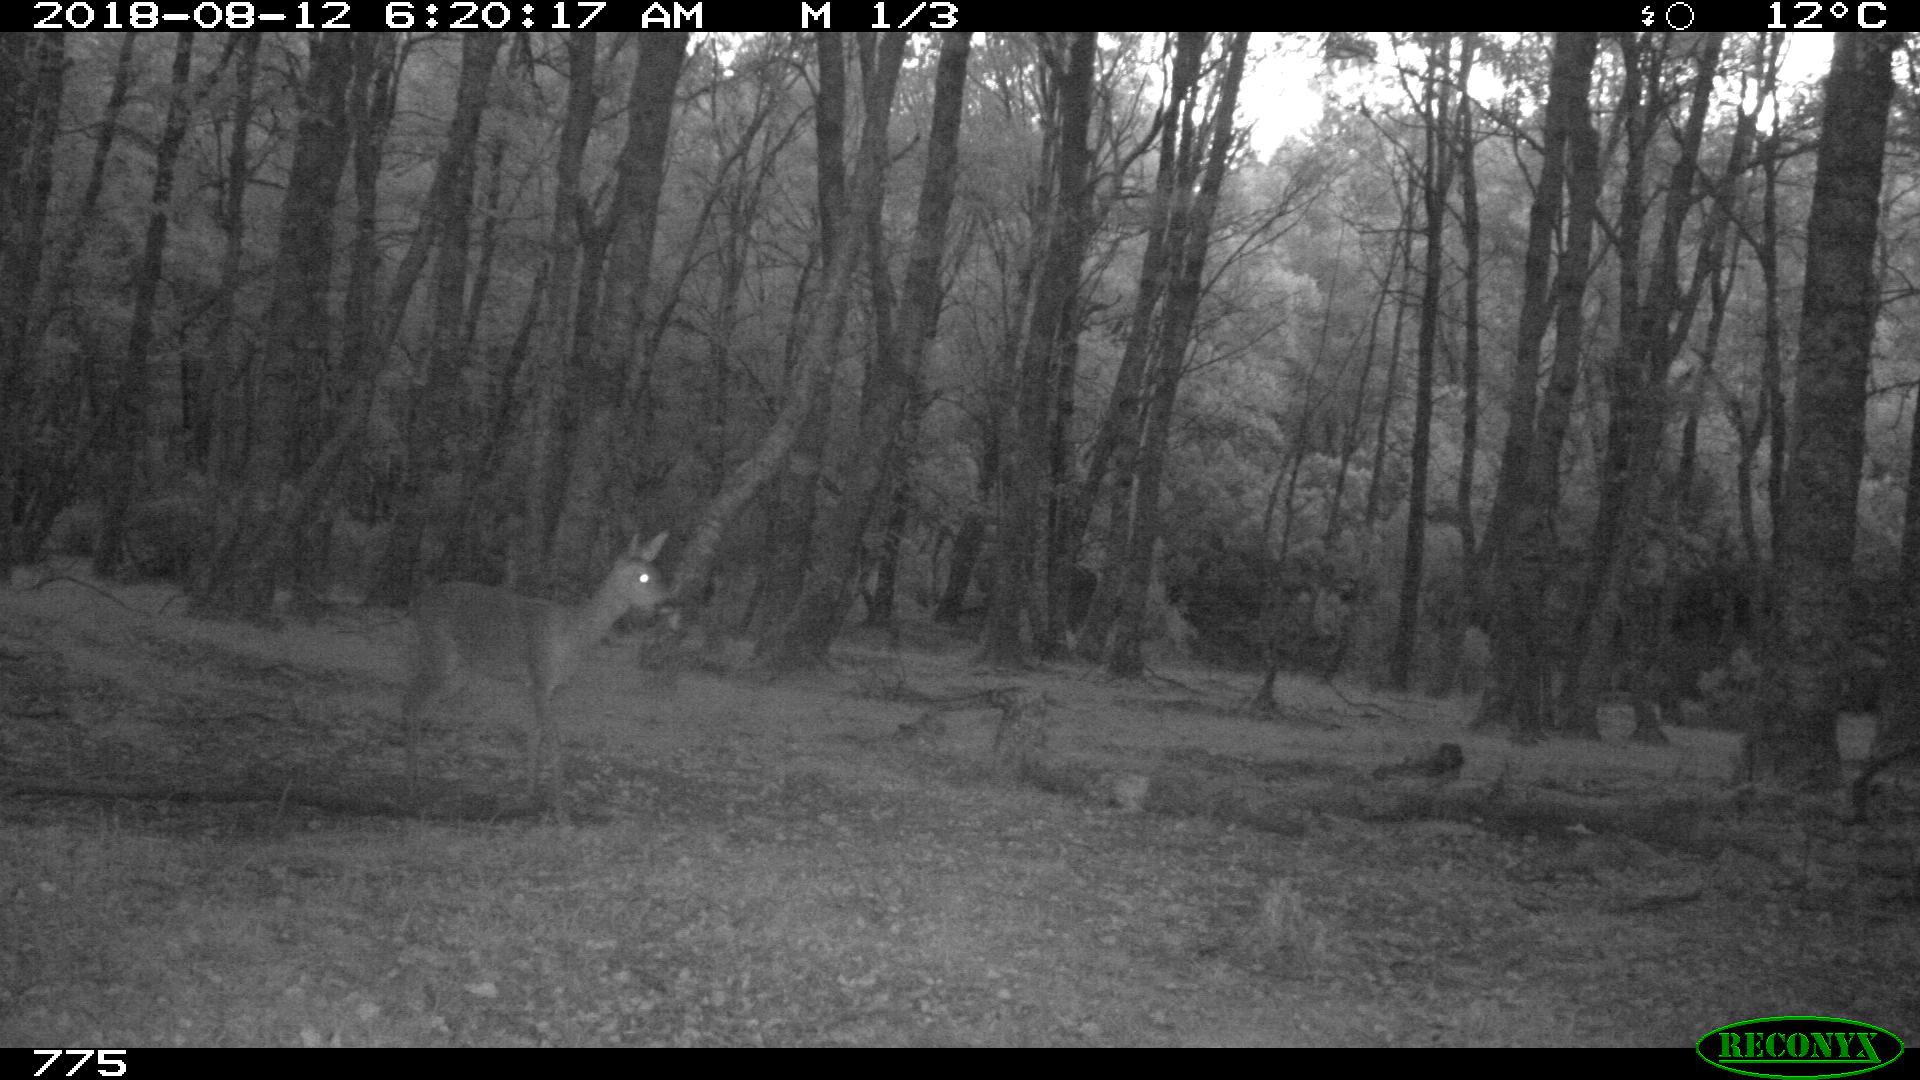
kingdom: Animalia
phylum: Chordata
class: Mammalia
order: Artiodactyla
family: Cervidae
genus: Capreolus
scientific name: Capreolus capreolus
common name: Western roe deer
